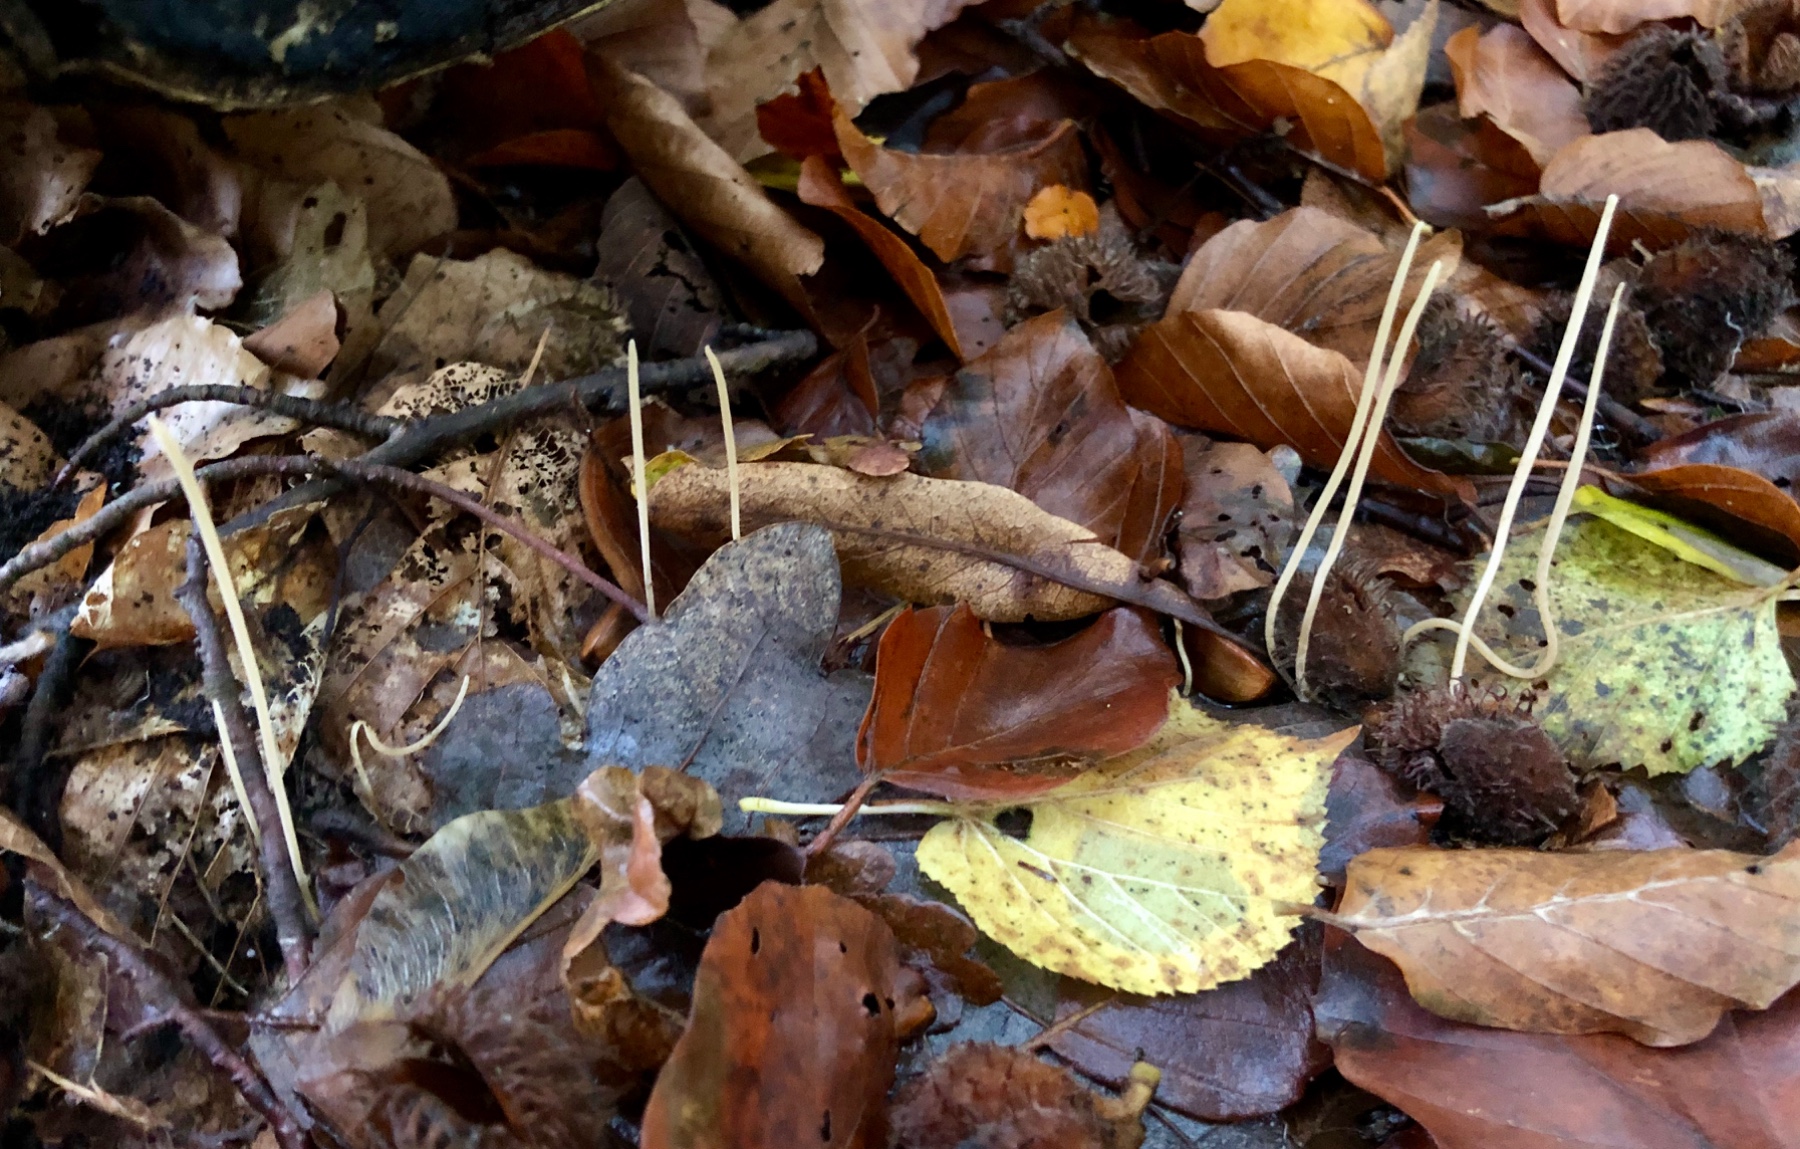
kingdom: Fungi
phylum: Basidiomycota
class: Agaricomycetes
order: Agaricales
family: Typhulaceae
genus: Typhula
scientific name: Typhula juncea
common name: trådagtig rørkølle
